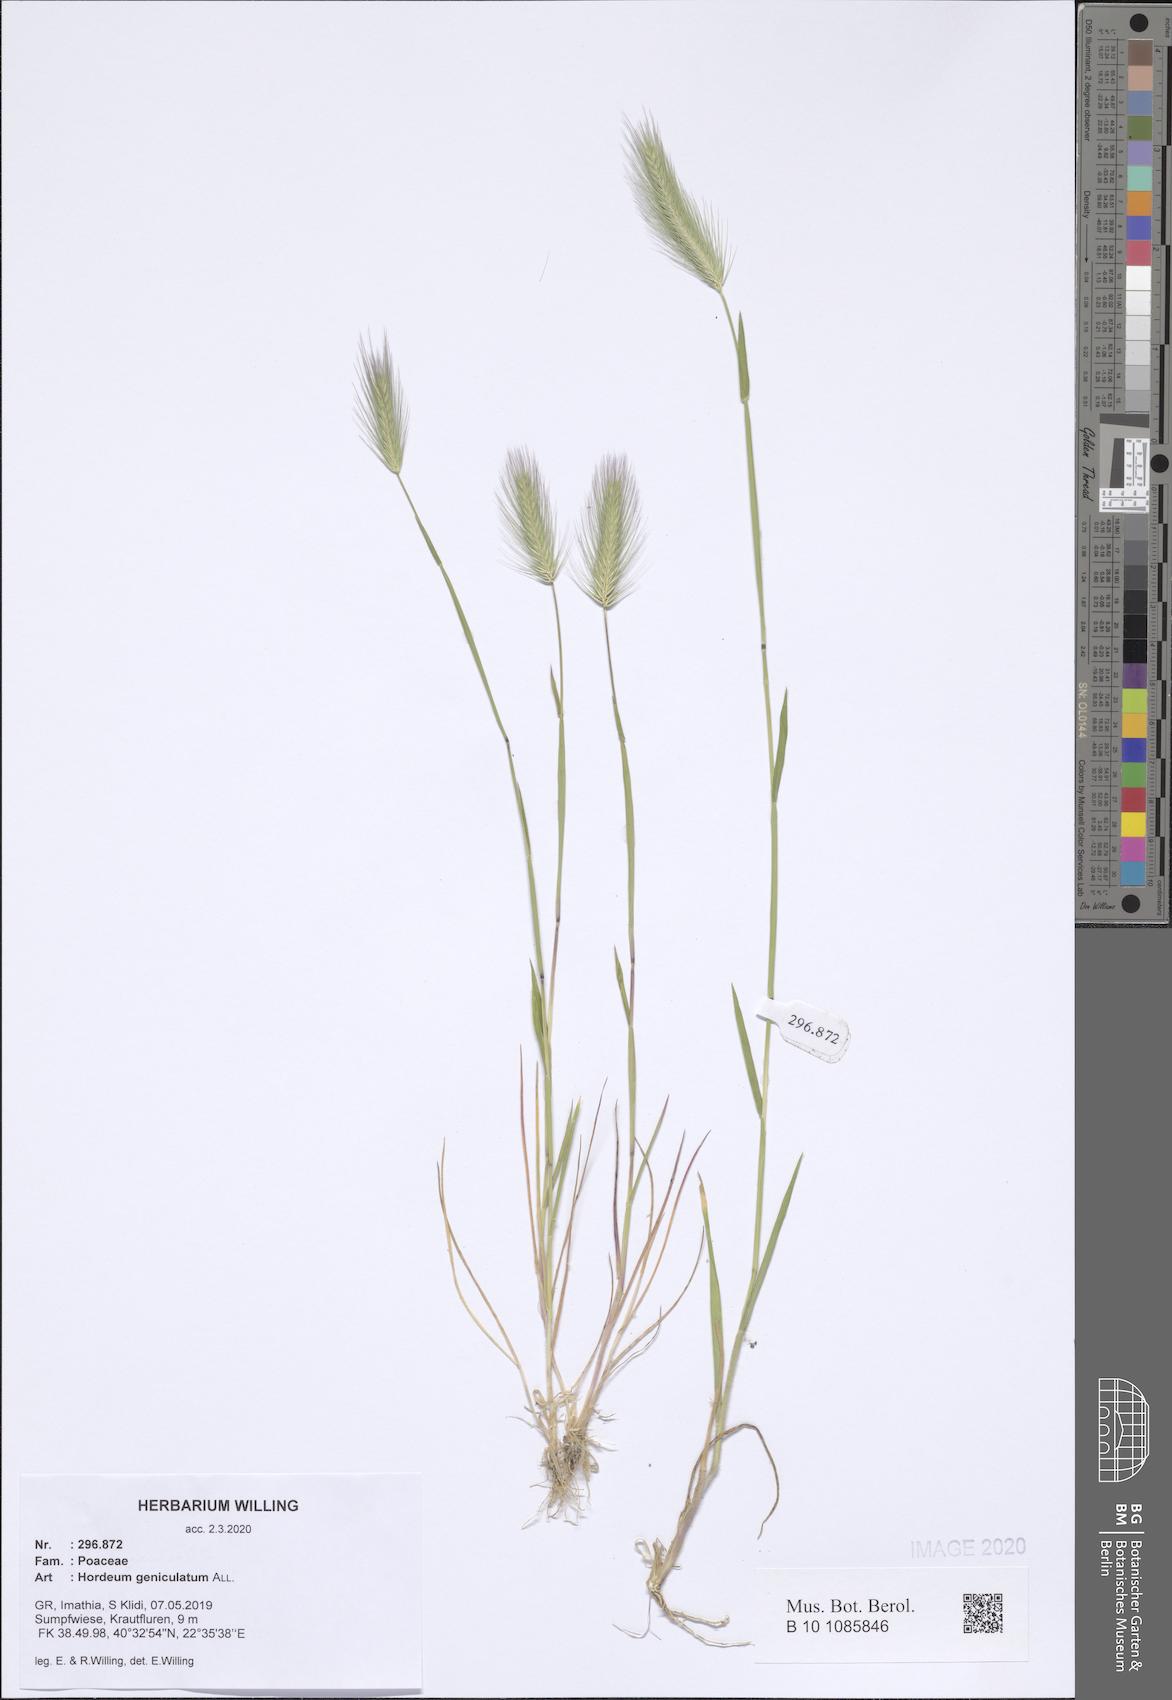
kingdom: Plantae
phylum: Tracheophyta
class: Liliopsida
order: Poales
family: Poaceae
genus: Hordeum
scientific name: Hordeum marinum
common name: Sea barley
